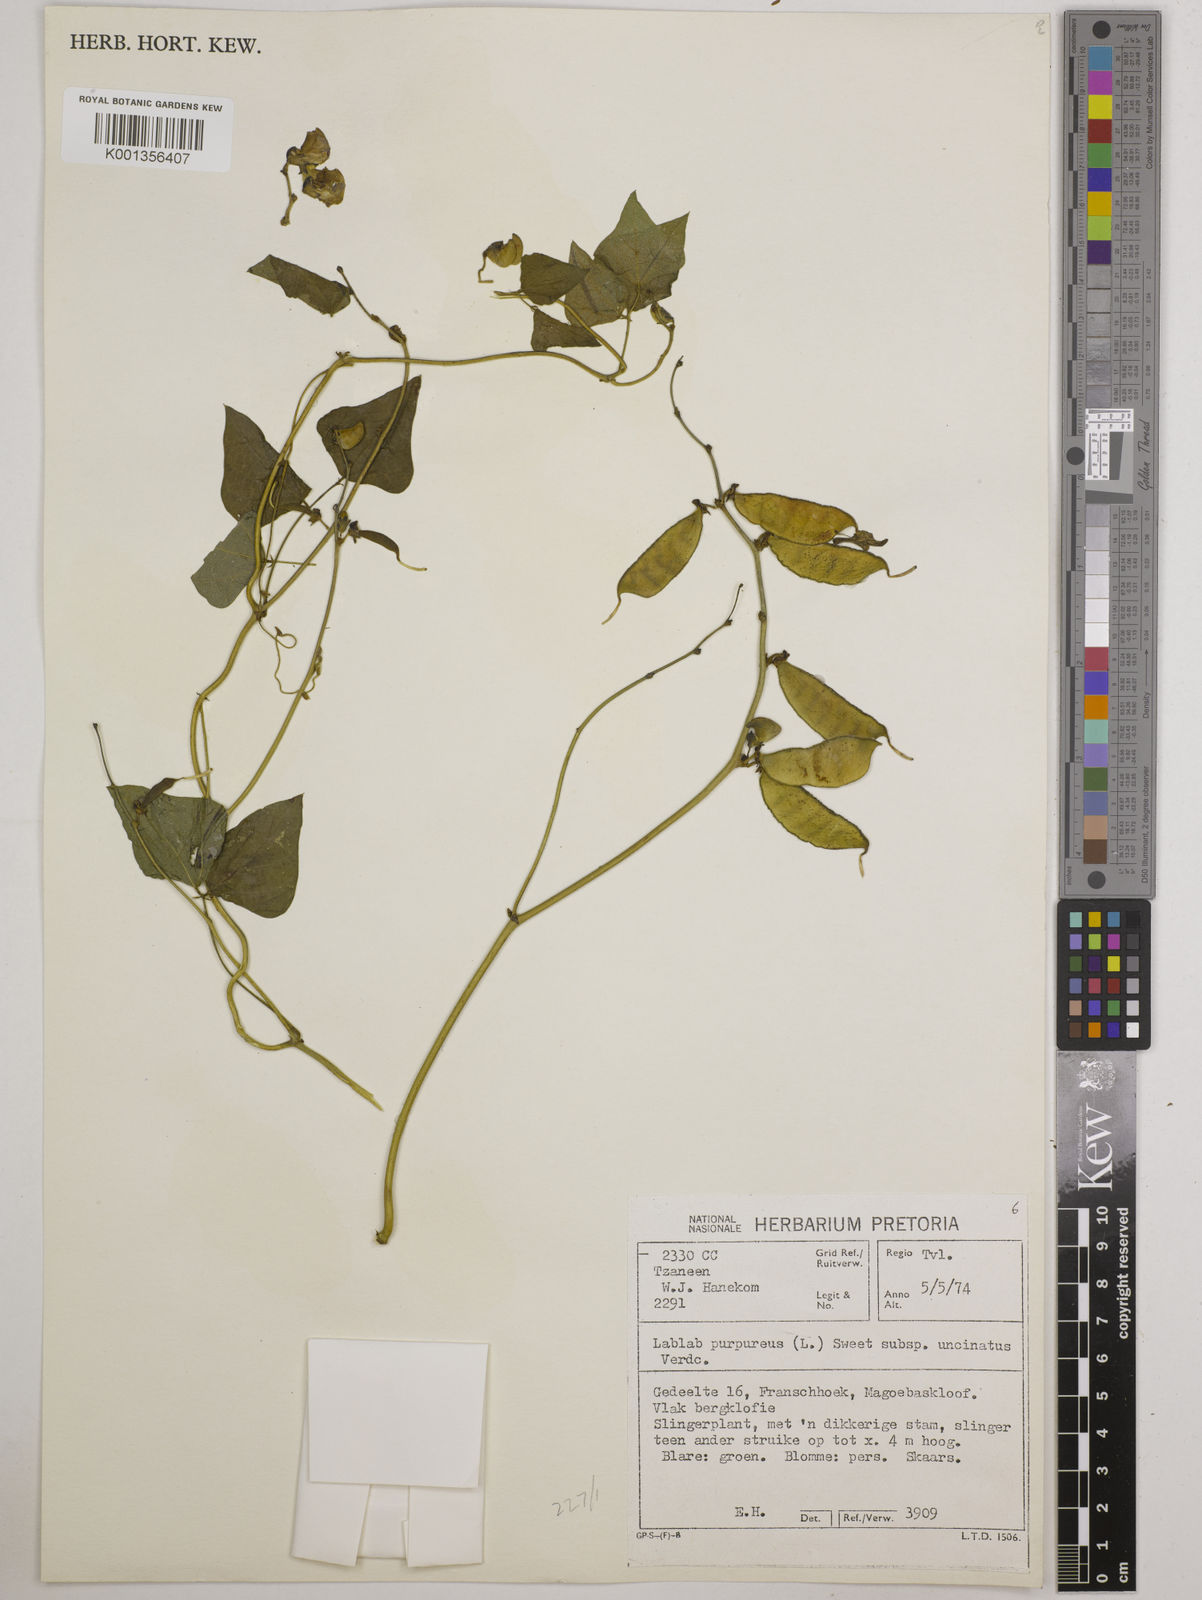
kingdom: Plantae
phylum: Tracheophyta
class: Magnoliopsida
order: Fabales
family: Fabaceae
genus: Lablab
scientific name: Lablab purpureus
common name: Lablab-bean
